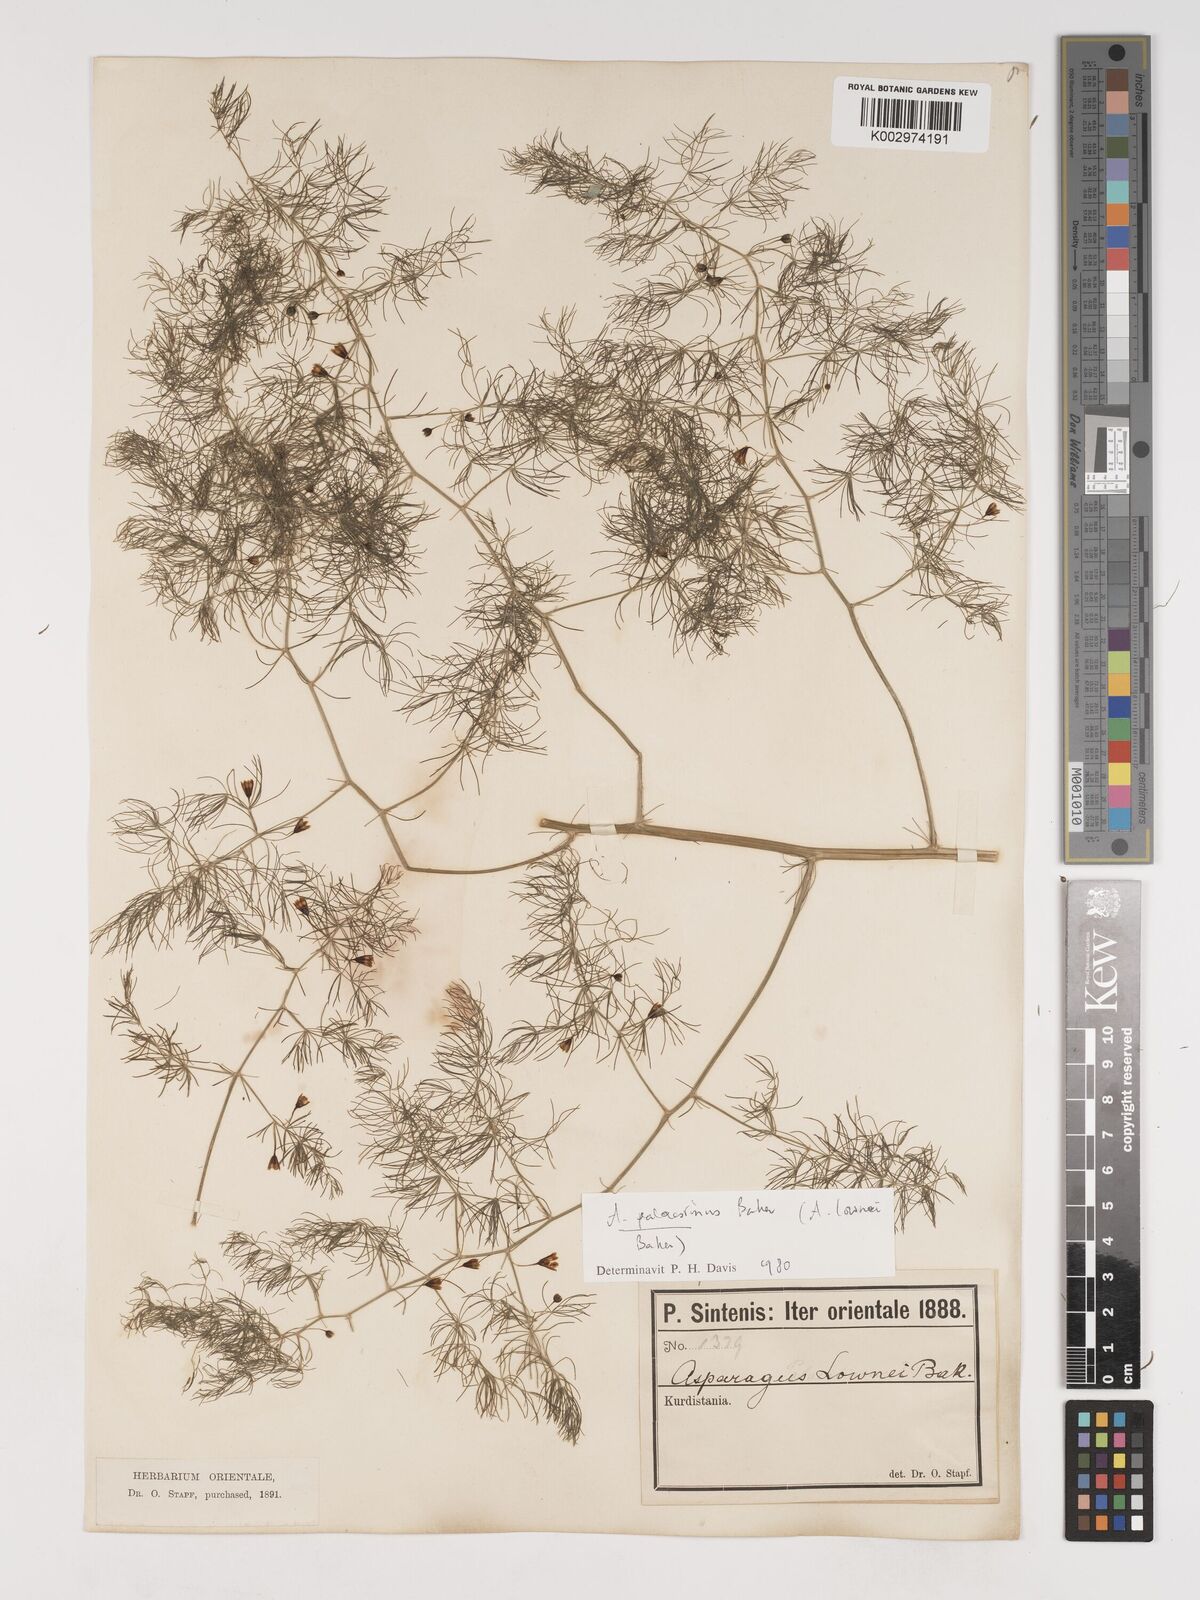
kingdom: Plantae
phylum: Tracheophyta
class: Liliopsida
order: Asparagales
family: Asparagaceae
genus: Asparagus
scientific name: Asparagus palaestinus
